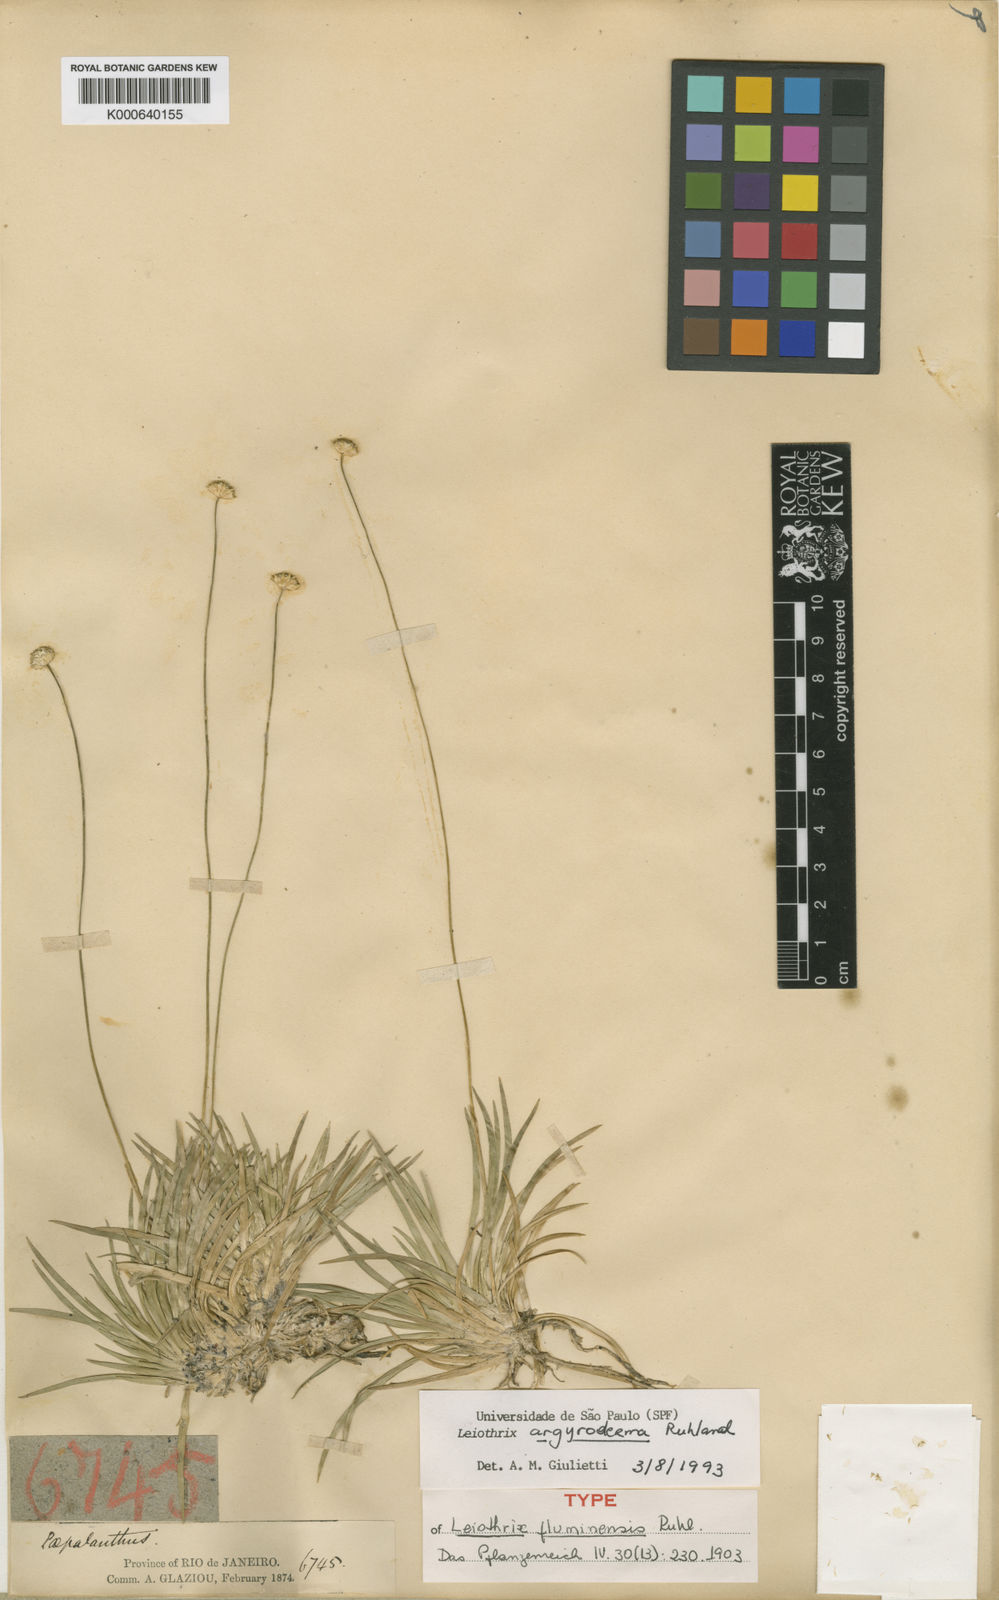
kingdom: Plantae
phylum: Tracheophyta
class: Liliopsida
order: Poales
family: Eriocaulaceae
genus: Leiothrix
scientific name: Leiothrix argyroderma
